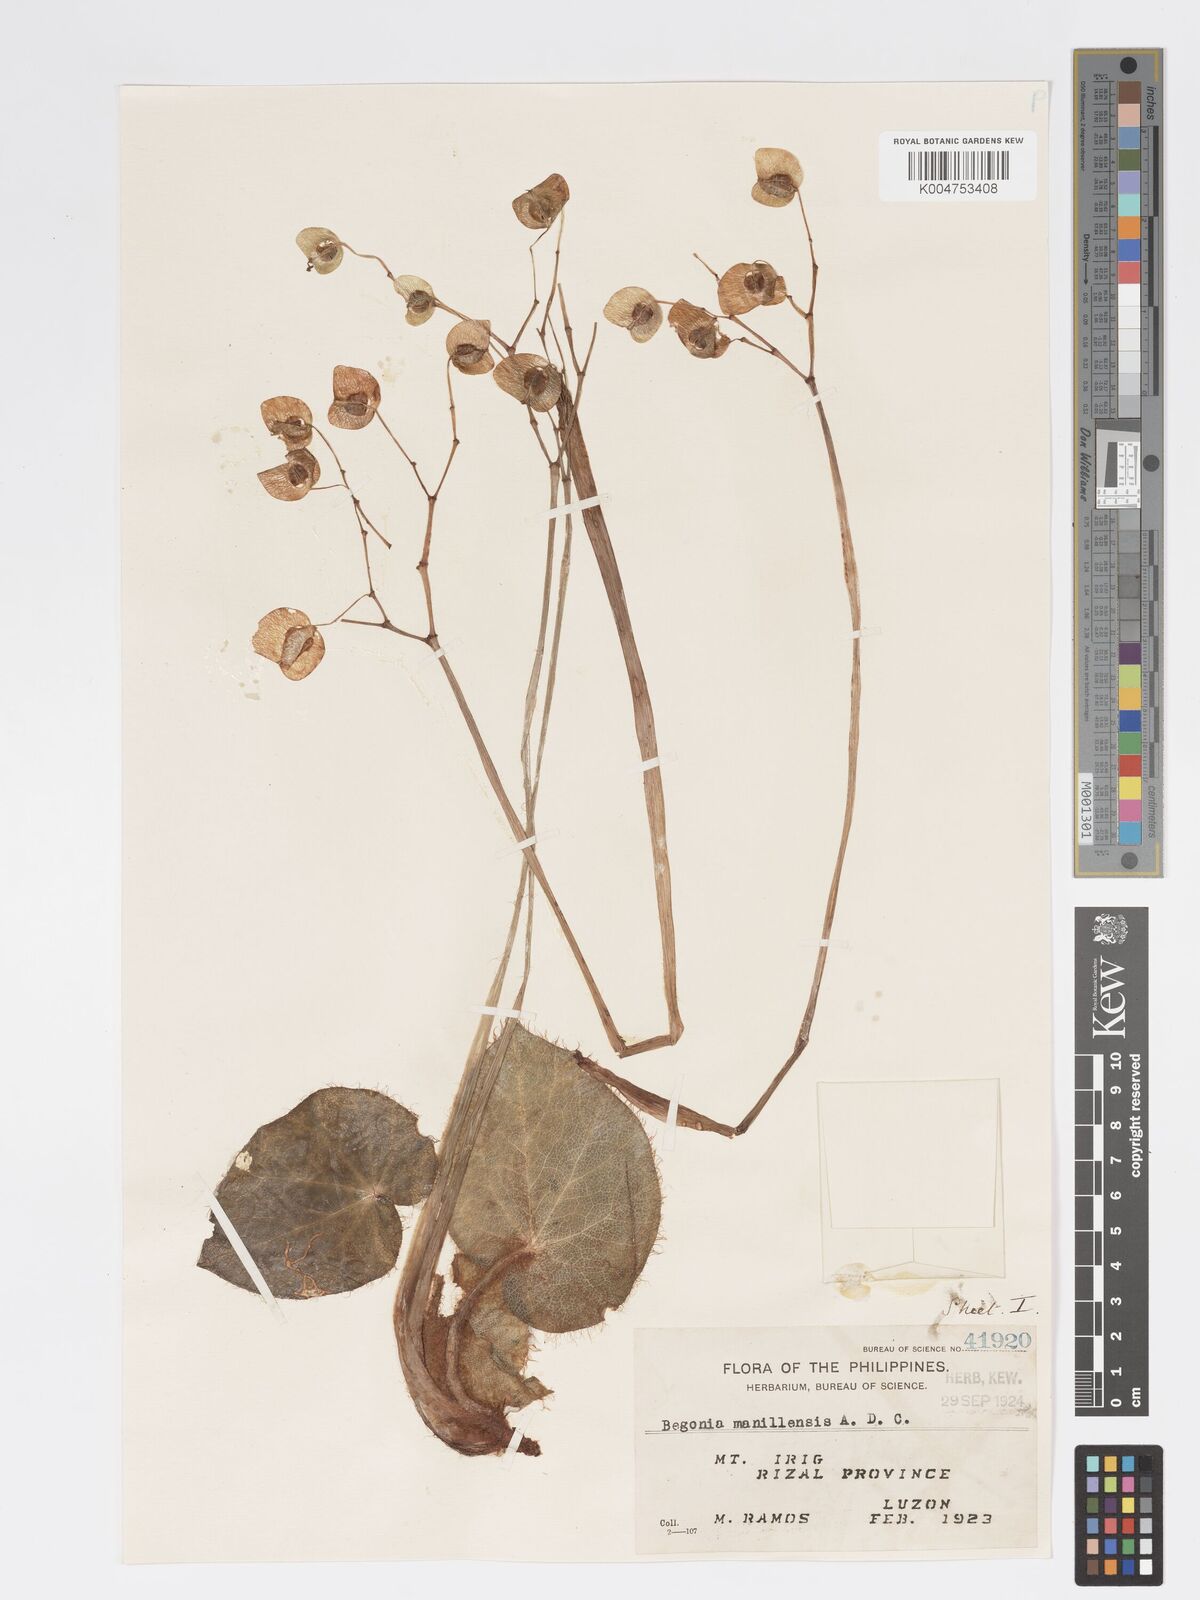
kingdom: Plantae
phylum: Tracheophyta
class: Magnoliopsida
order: Cucurbitales
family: Begoniaceae
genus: Begonia
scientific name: Begonia manillensis
